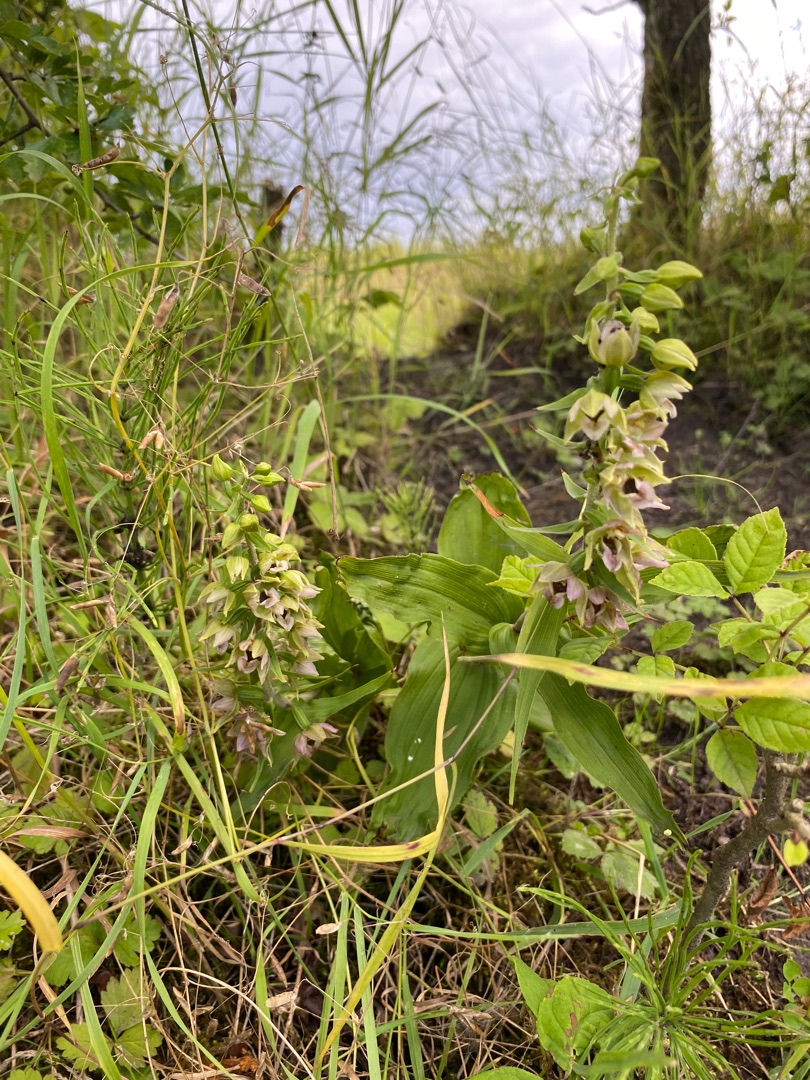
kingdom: Plantae
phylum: Tracheophyta
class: Liliopsida
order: Asparagales
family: Orchidaceae
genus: Epipactis
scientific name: Epipactis helleborine
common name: Skov-hullæbe
